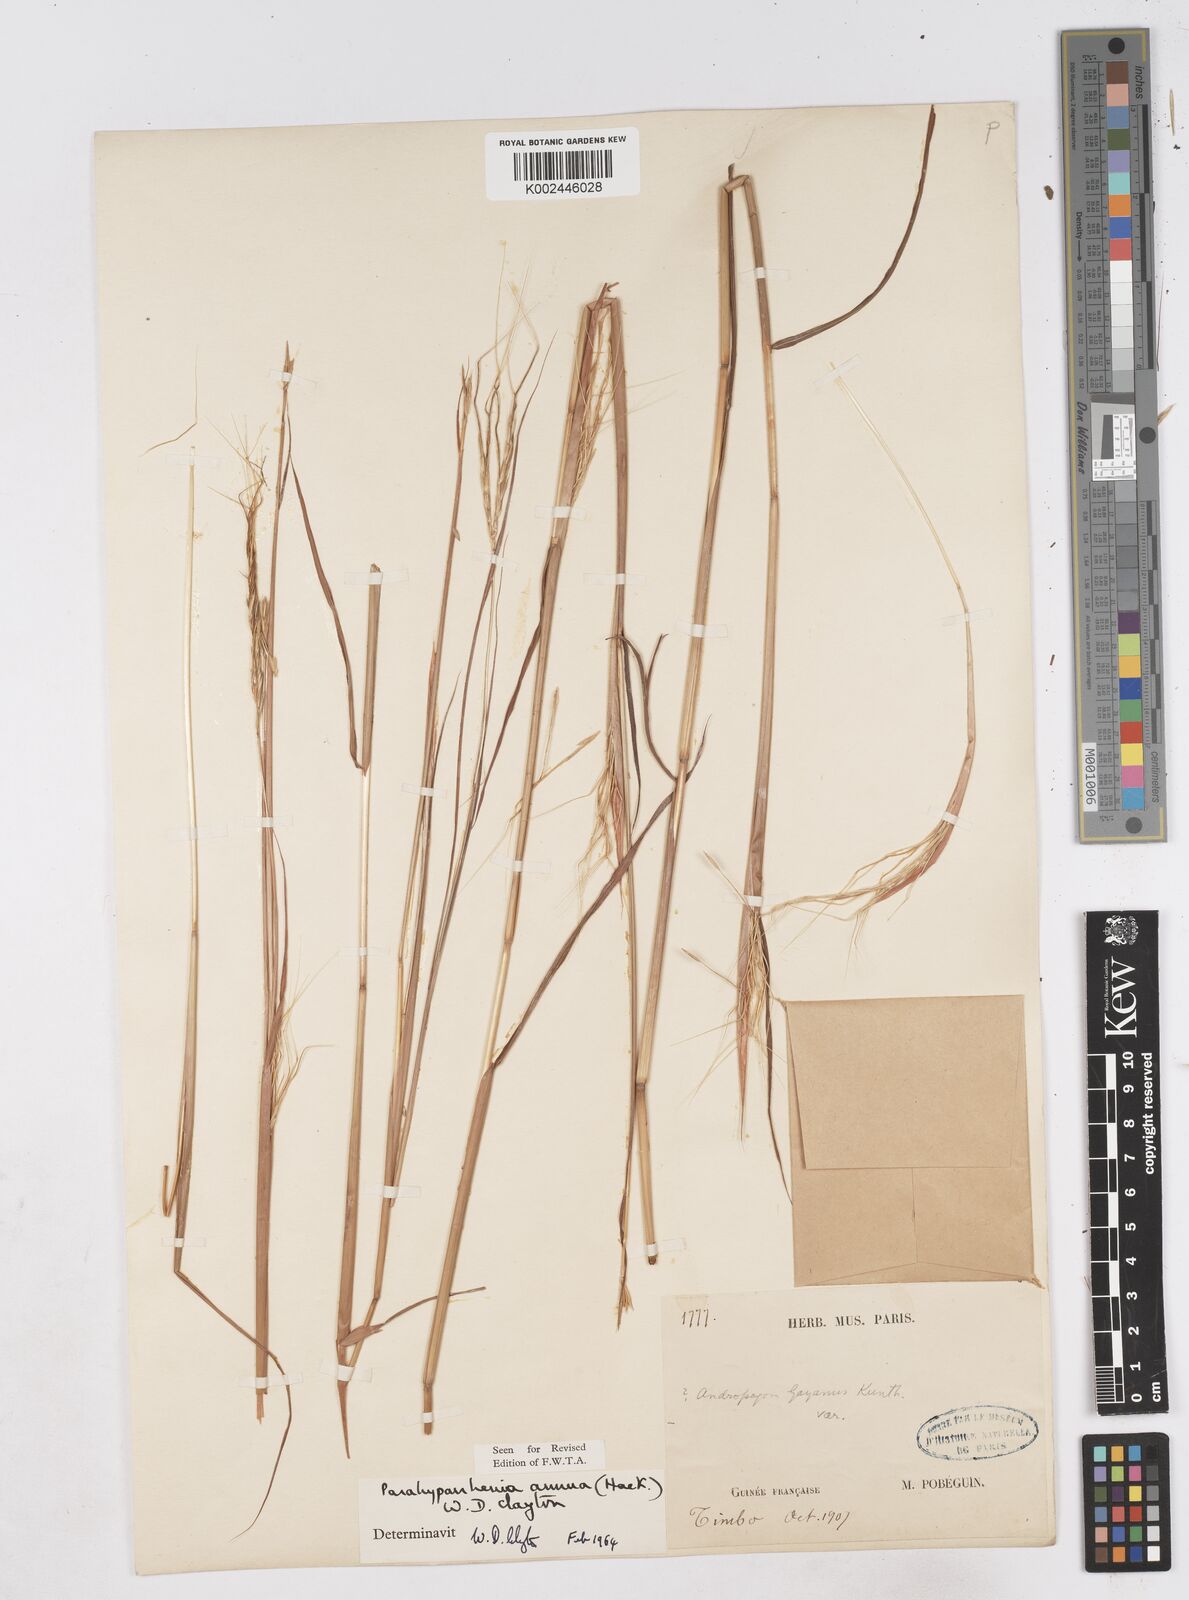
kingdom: Plantae
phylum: Tracheophyta
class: Liliopsida
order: Poales
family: Poaceae
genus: Parahyparrhenia
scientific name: Parahyparrhenia annua
